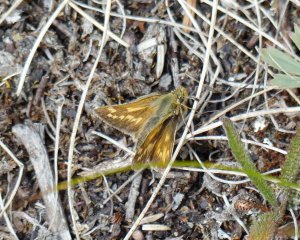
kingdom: Animalia
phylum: Arthropoda
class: Insecta
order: Lepidoptera
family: Hesperiidae
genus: Polites
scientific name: Polites sabuleti
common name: Draco Skipper
